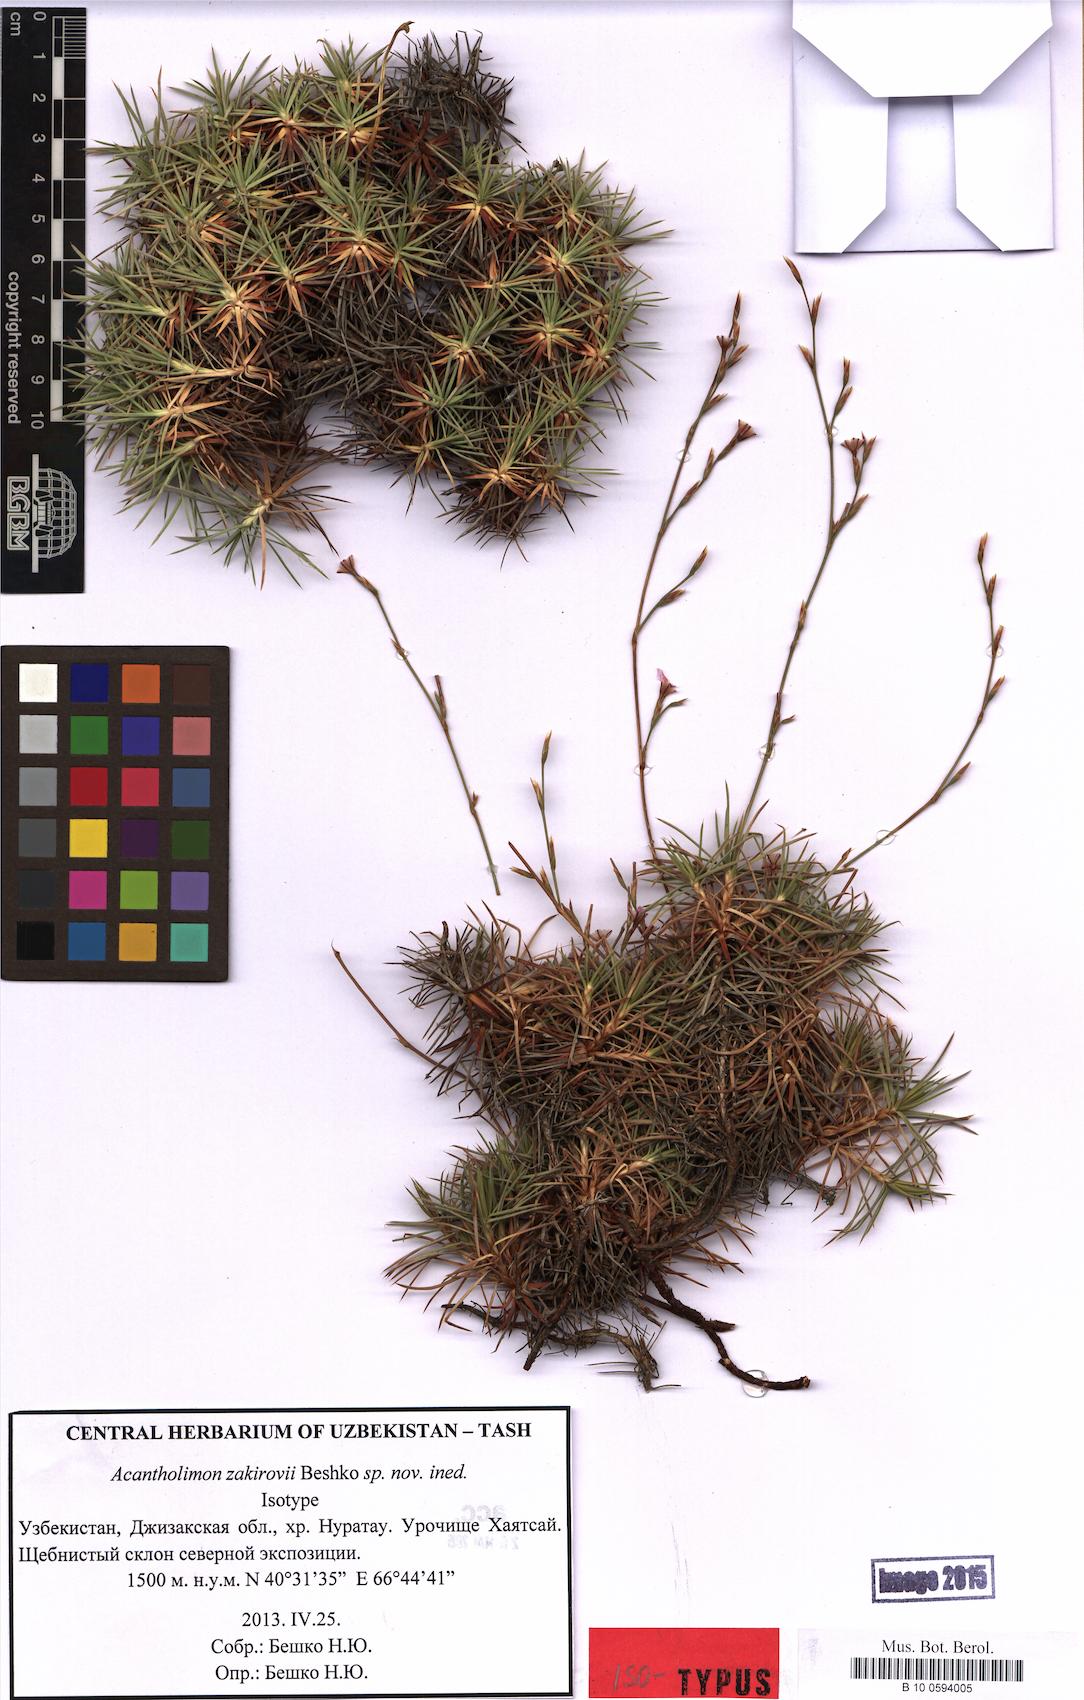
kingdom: Plantae
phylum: Tracheophyta
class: Magnoliopsida
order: Caryophyllales
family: Plumbaginaceae
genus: Acantholimon
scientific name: Acantholimon zakirovii
